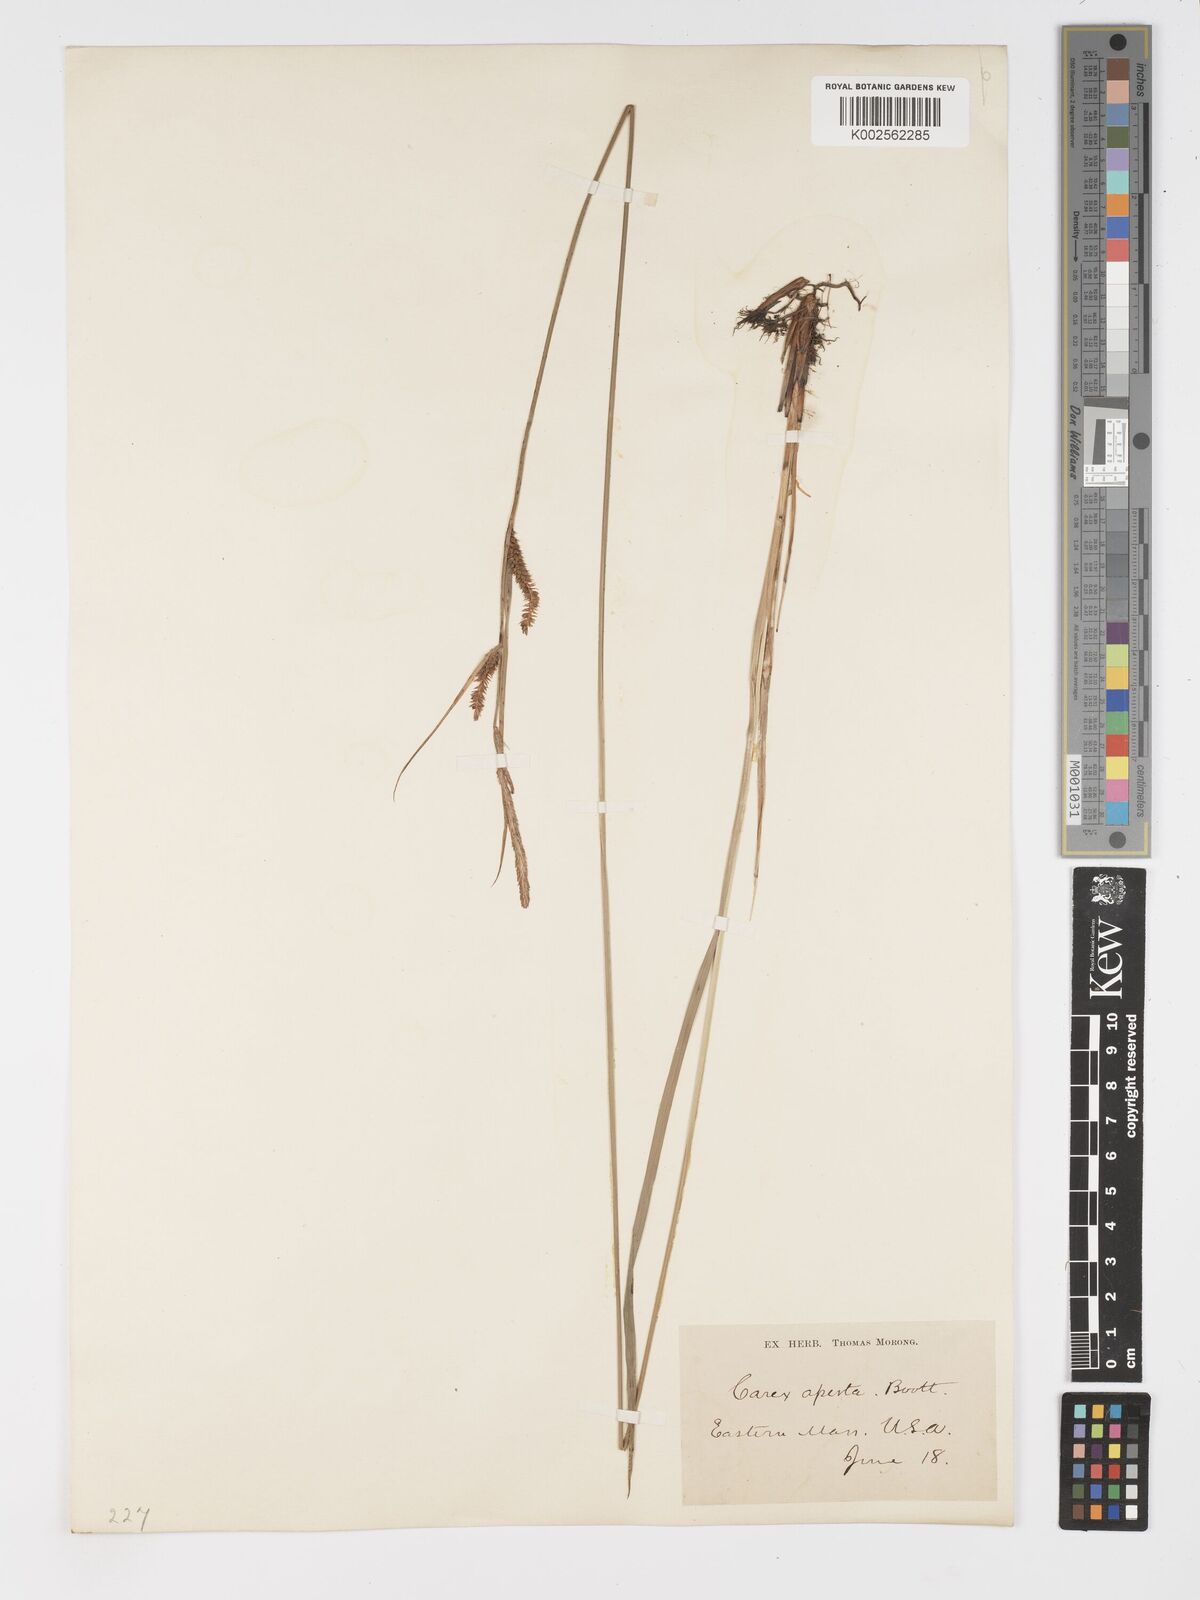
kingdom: Plantae
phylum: Tracheophyta
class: Liliopsida
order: Poales
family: Cyperaceae
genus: Carex
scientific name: Carex aperta
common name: Columbia sedge
